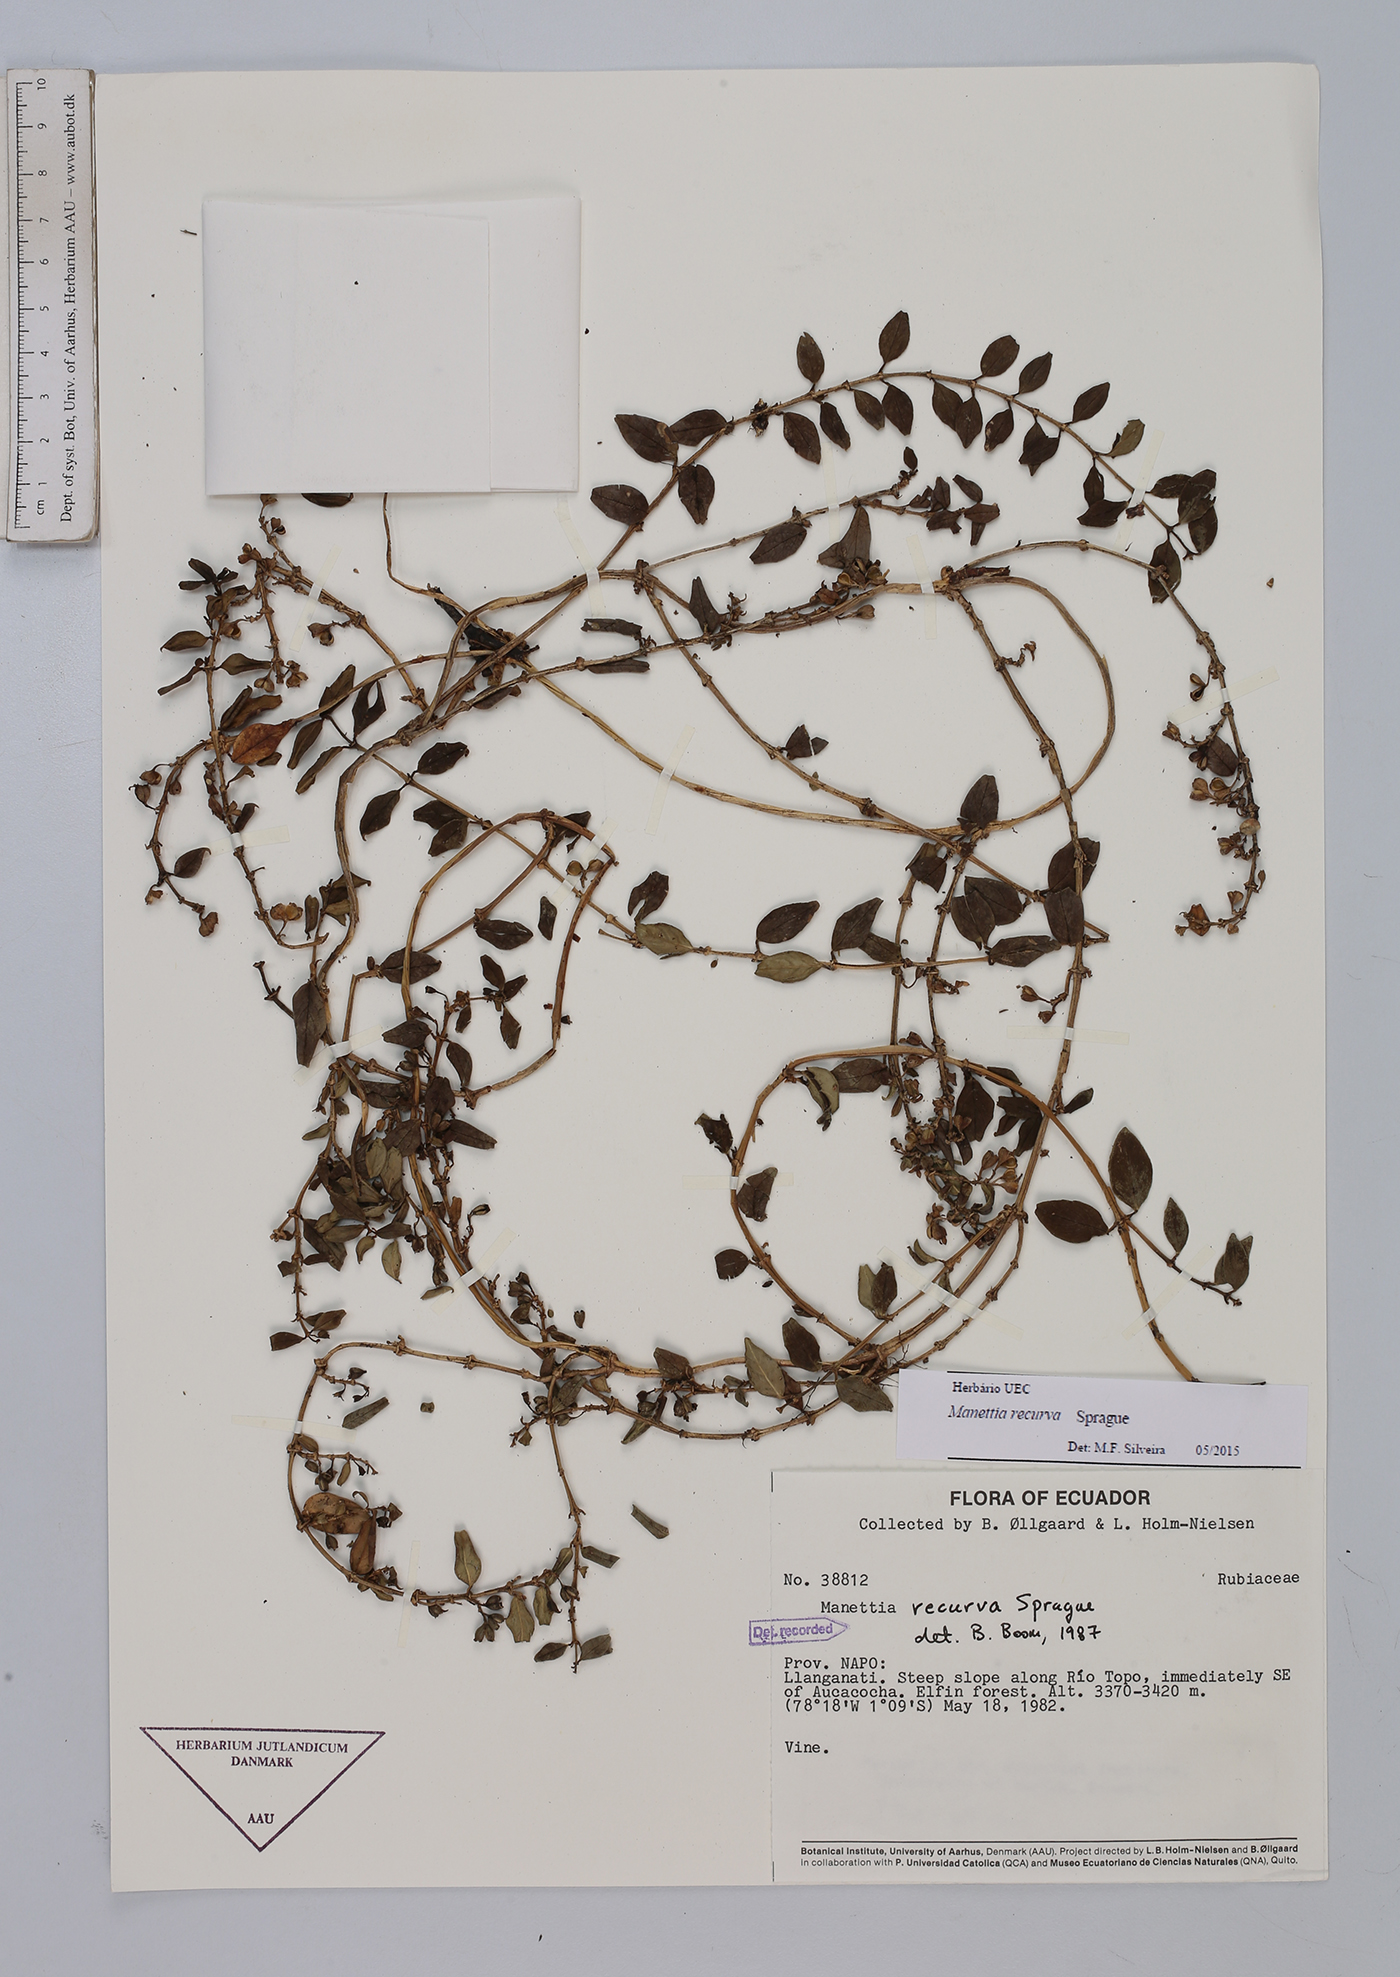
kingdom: Plantae
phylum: Tracheophyta
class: Magnoliopsida
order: Gentianales
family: Rubiaceae
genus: Manettia
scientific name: Manettia recurva
